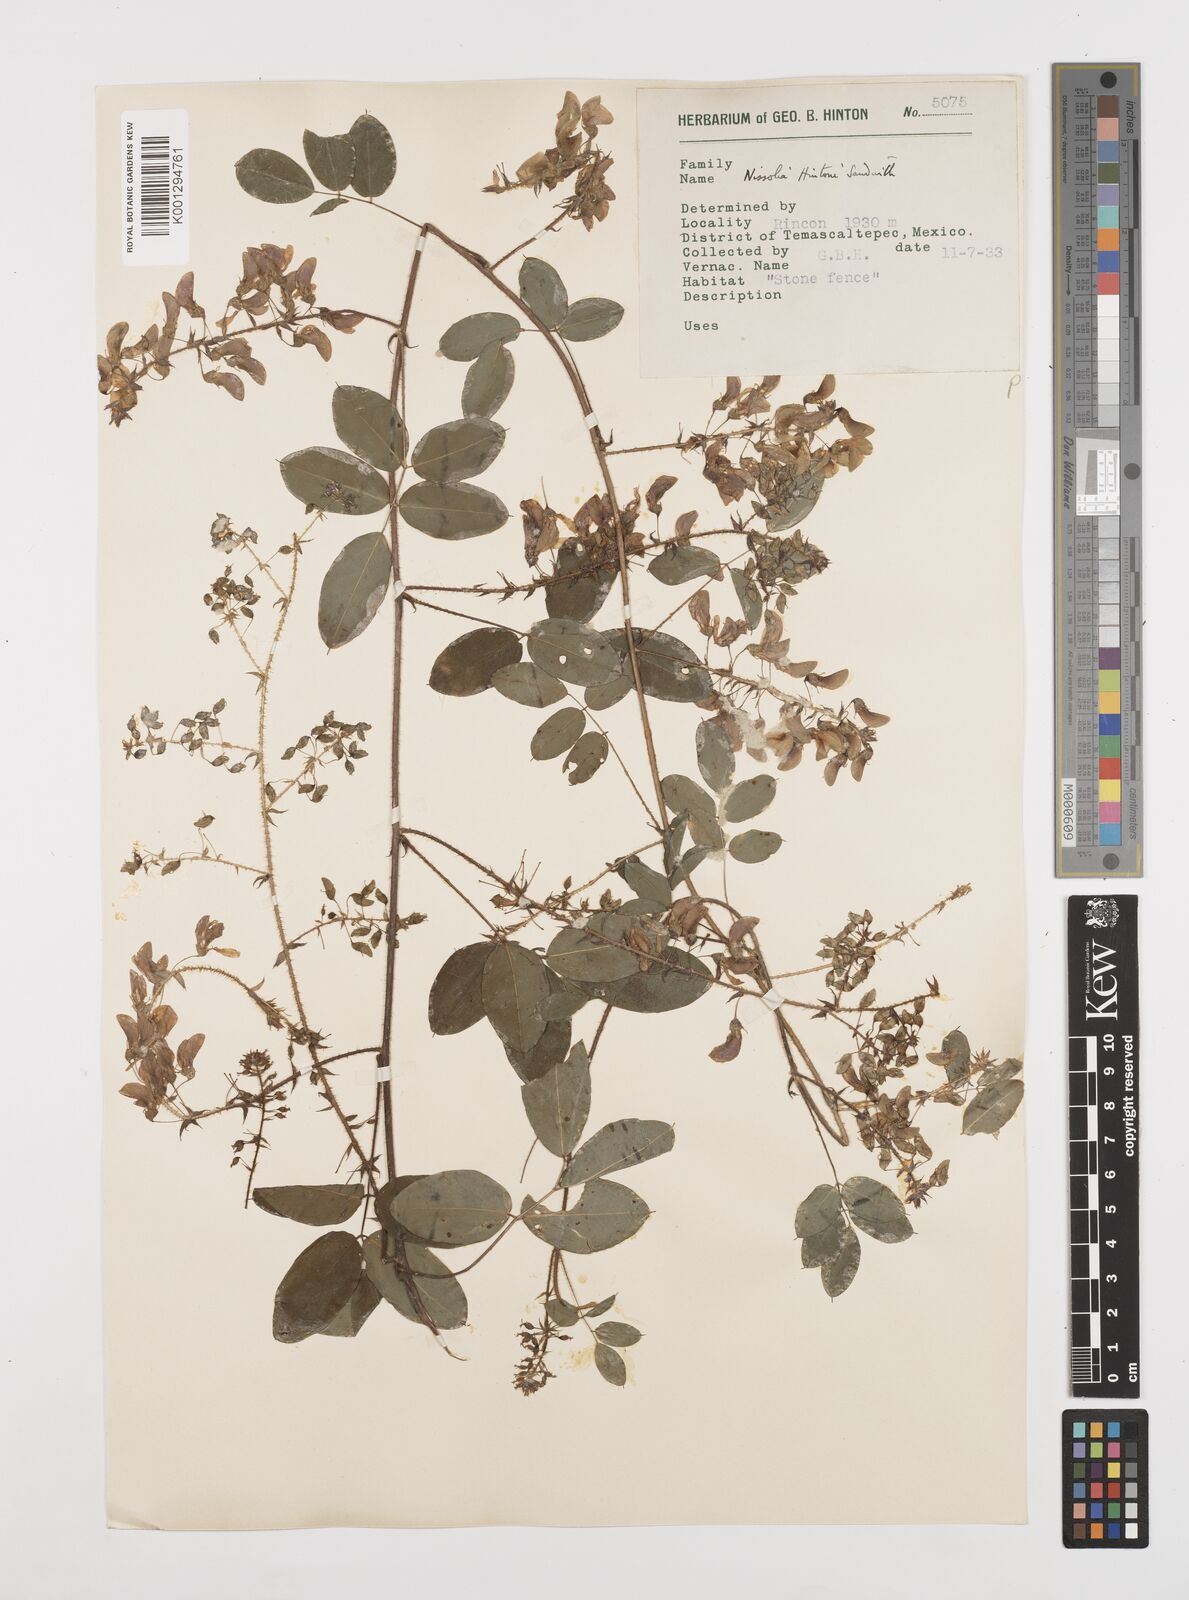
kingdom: Plantae
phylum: Tracheophyta
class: Magnoliopsida
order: Fabales
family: Fabaceae
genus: Nissolia
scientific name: Nissolia hintonii
